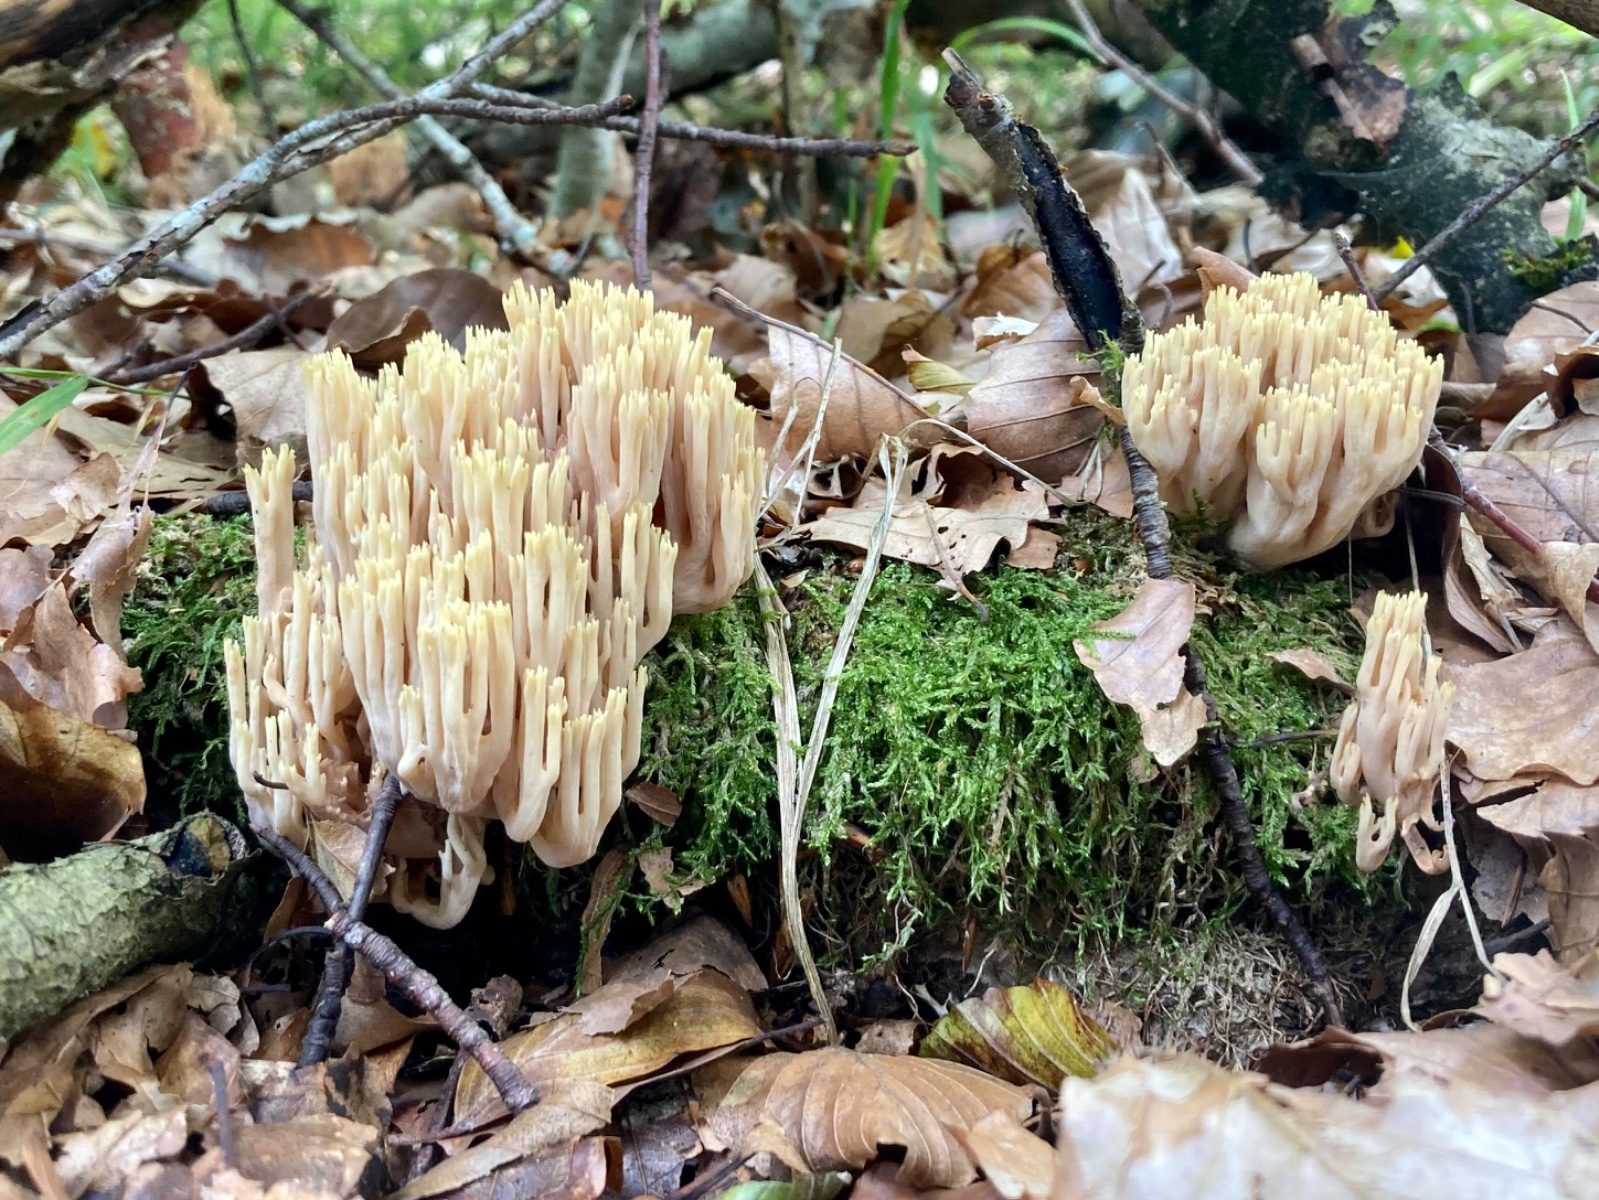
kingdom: Fungi
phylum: Basidiomycota
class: Agaricomycetes
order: Gomphales
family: Gomphaceae
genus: Ramaria
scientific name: Ramaria stricta
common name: rank koralsvamp
